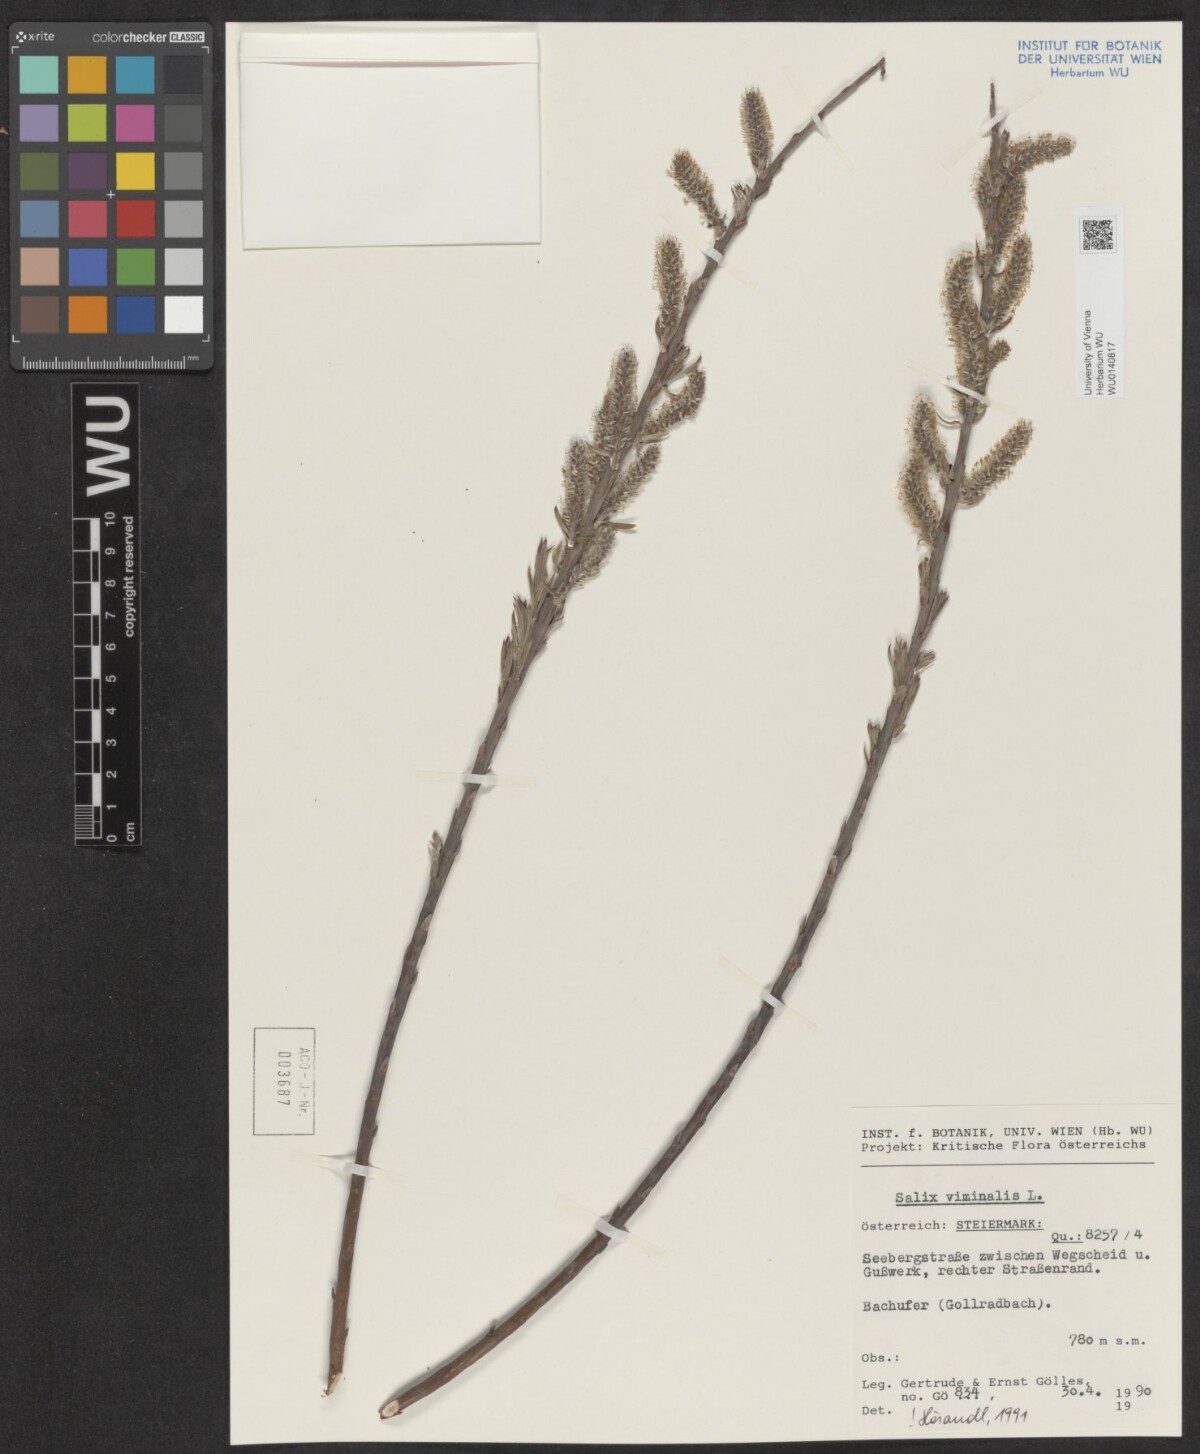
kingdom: Plantae
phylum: Tracheophyta
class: Magnoliopsida
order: Malpighiales
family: Salicaceae
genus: Salix
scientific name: Salix viminalis
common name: Osier
